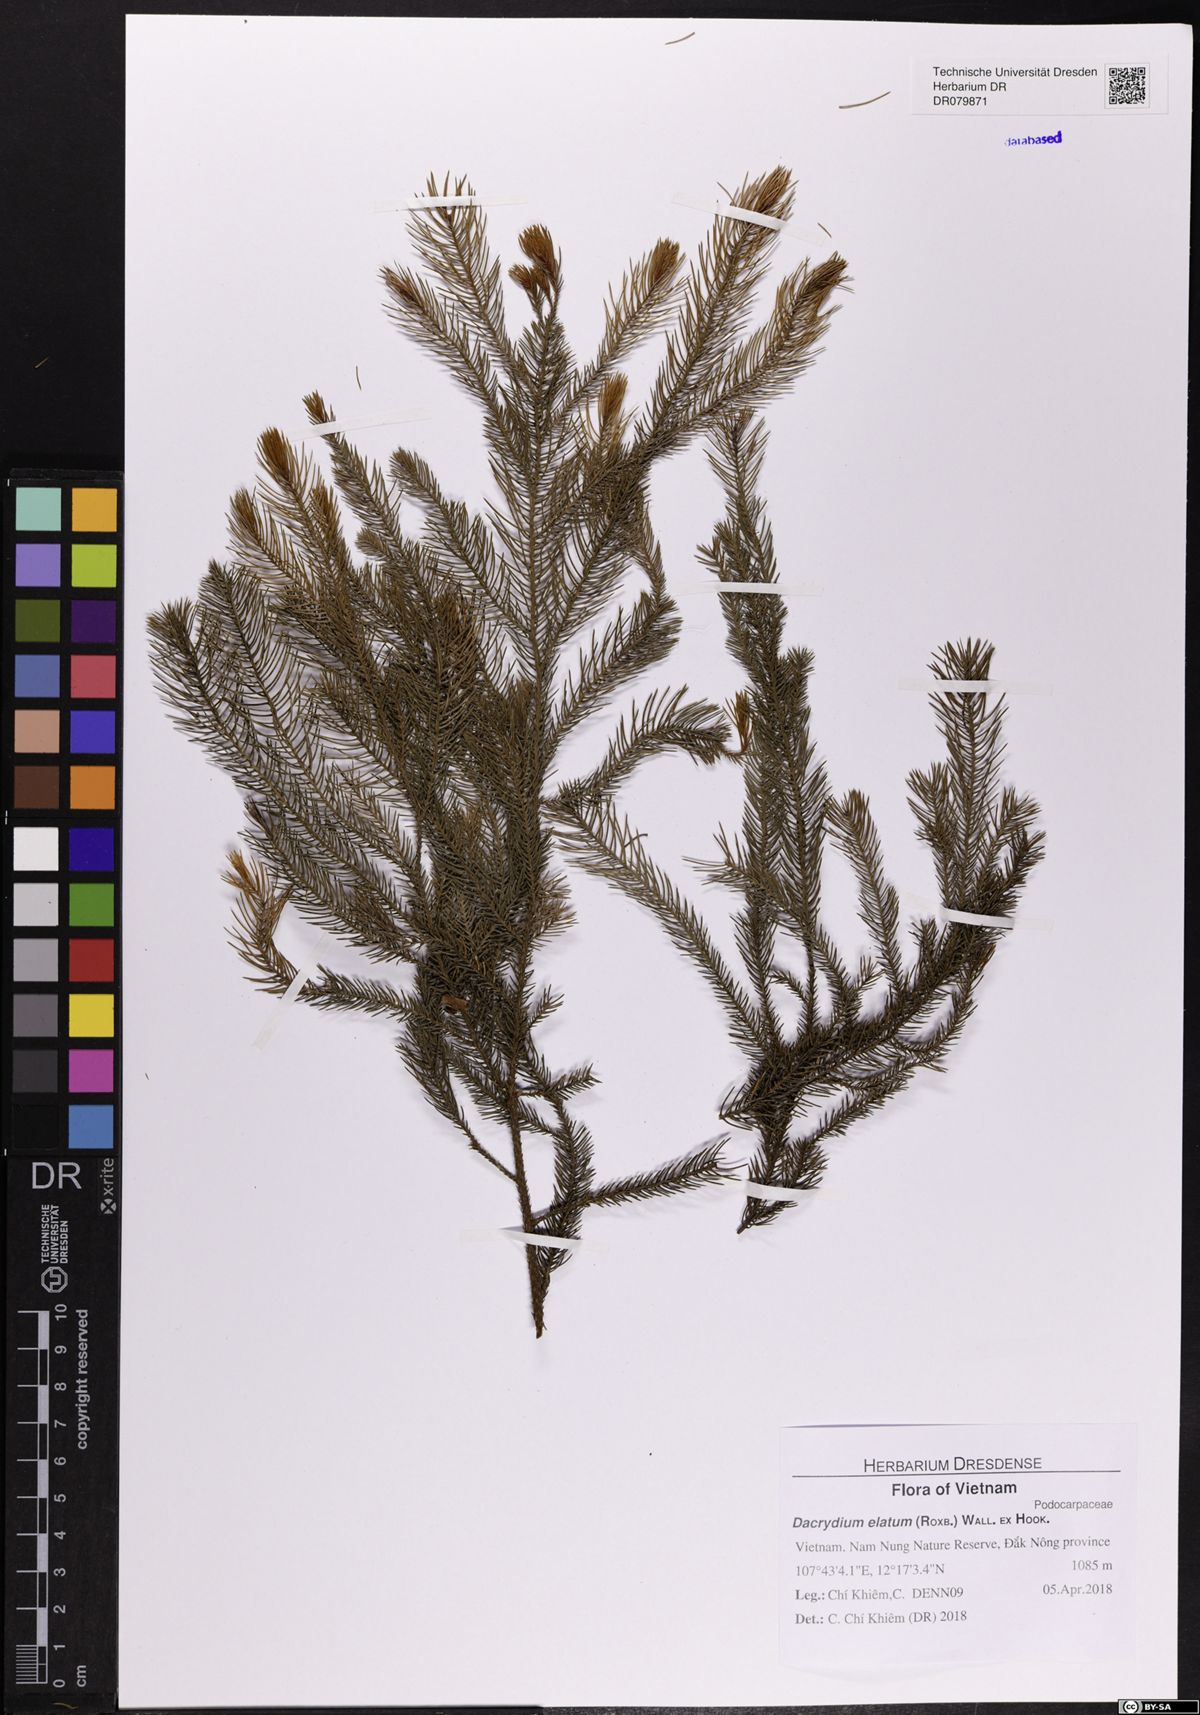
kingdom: Plantae
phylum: Tracheophyta
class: Pinopsida
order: Pinales
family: Podocarpaceae
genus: Dacrydium
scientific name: Dacrydium elatum
